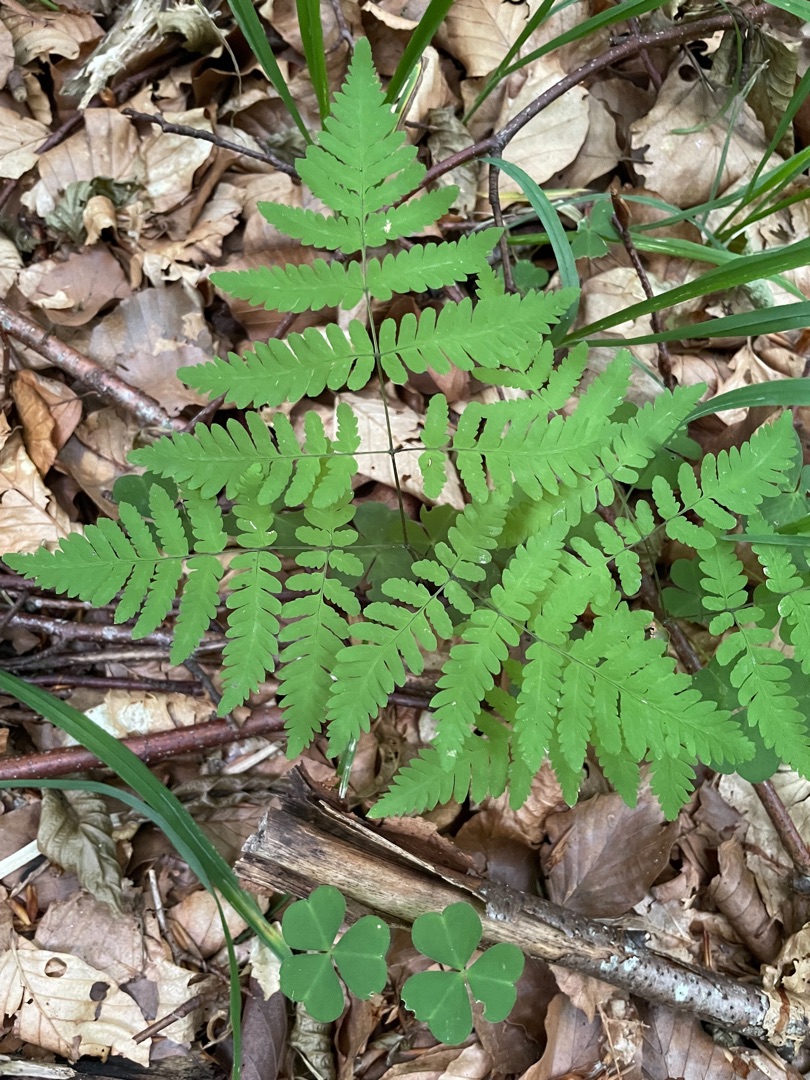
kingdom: Plantae
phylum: Tracheophyta
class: Polypodiopsida
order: Polypodiales
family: Cystopteridaceae
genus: Gymnocarpium
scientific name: Gymnocarpium dryopteris
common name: Tredelt egebregne
